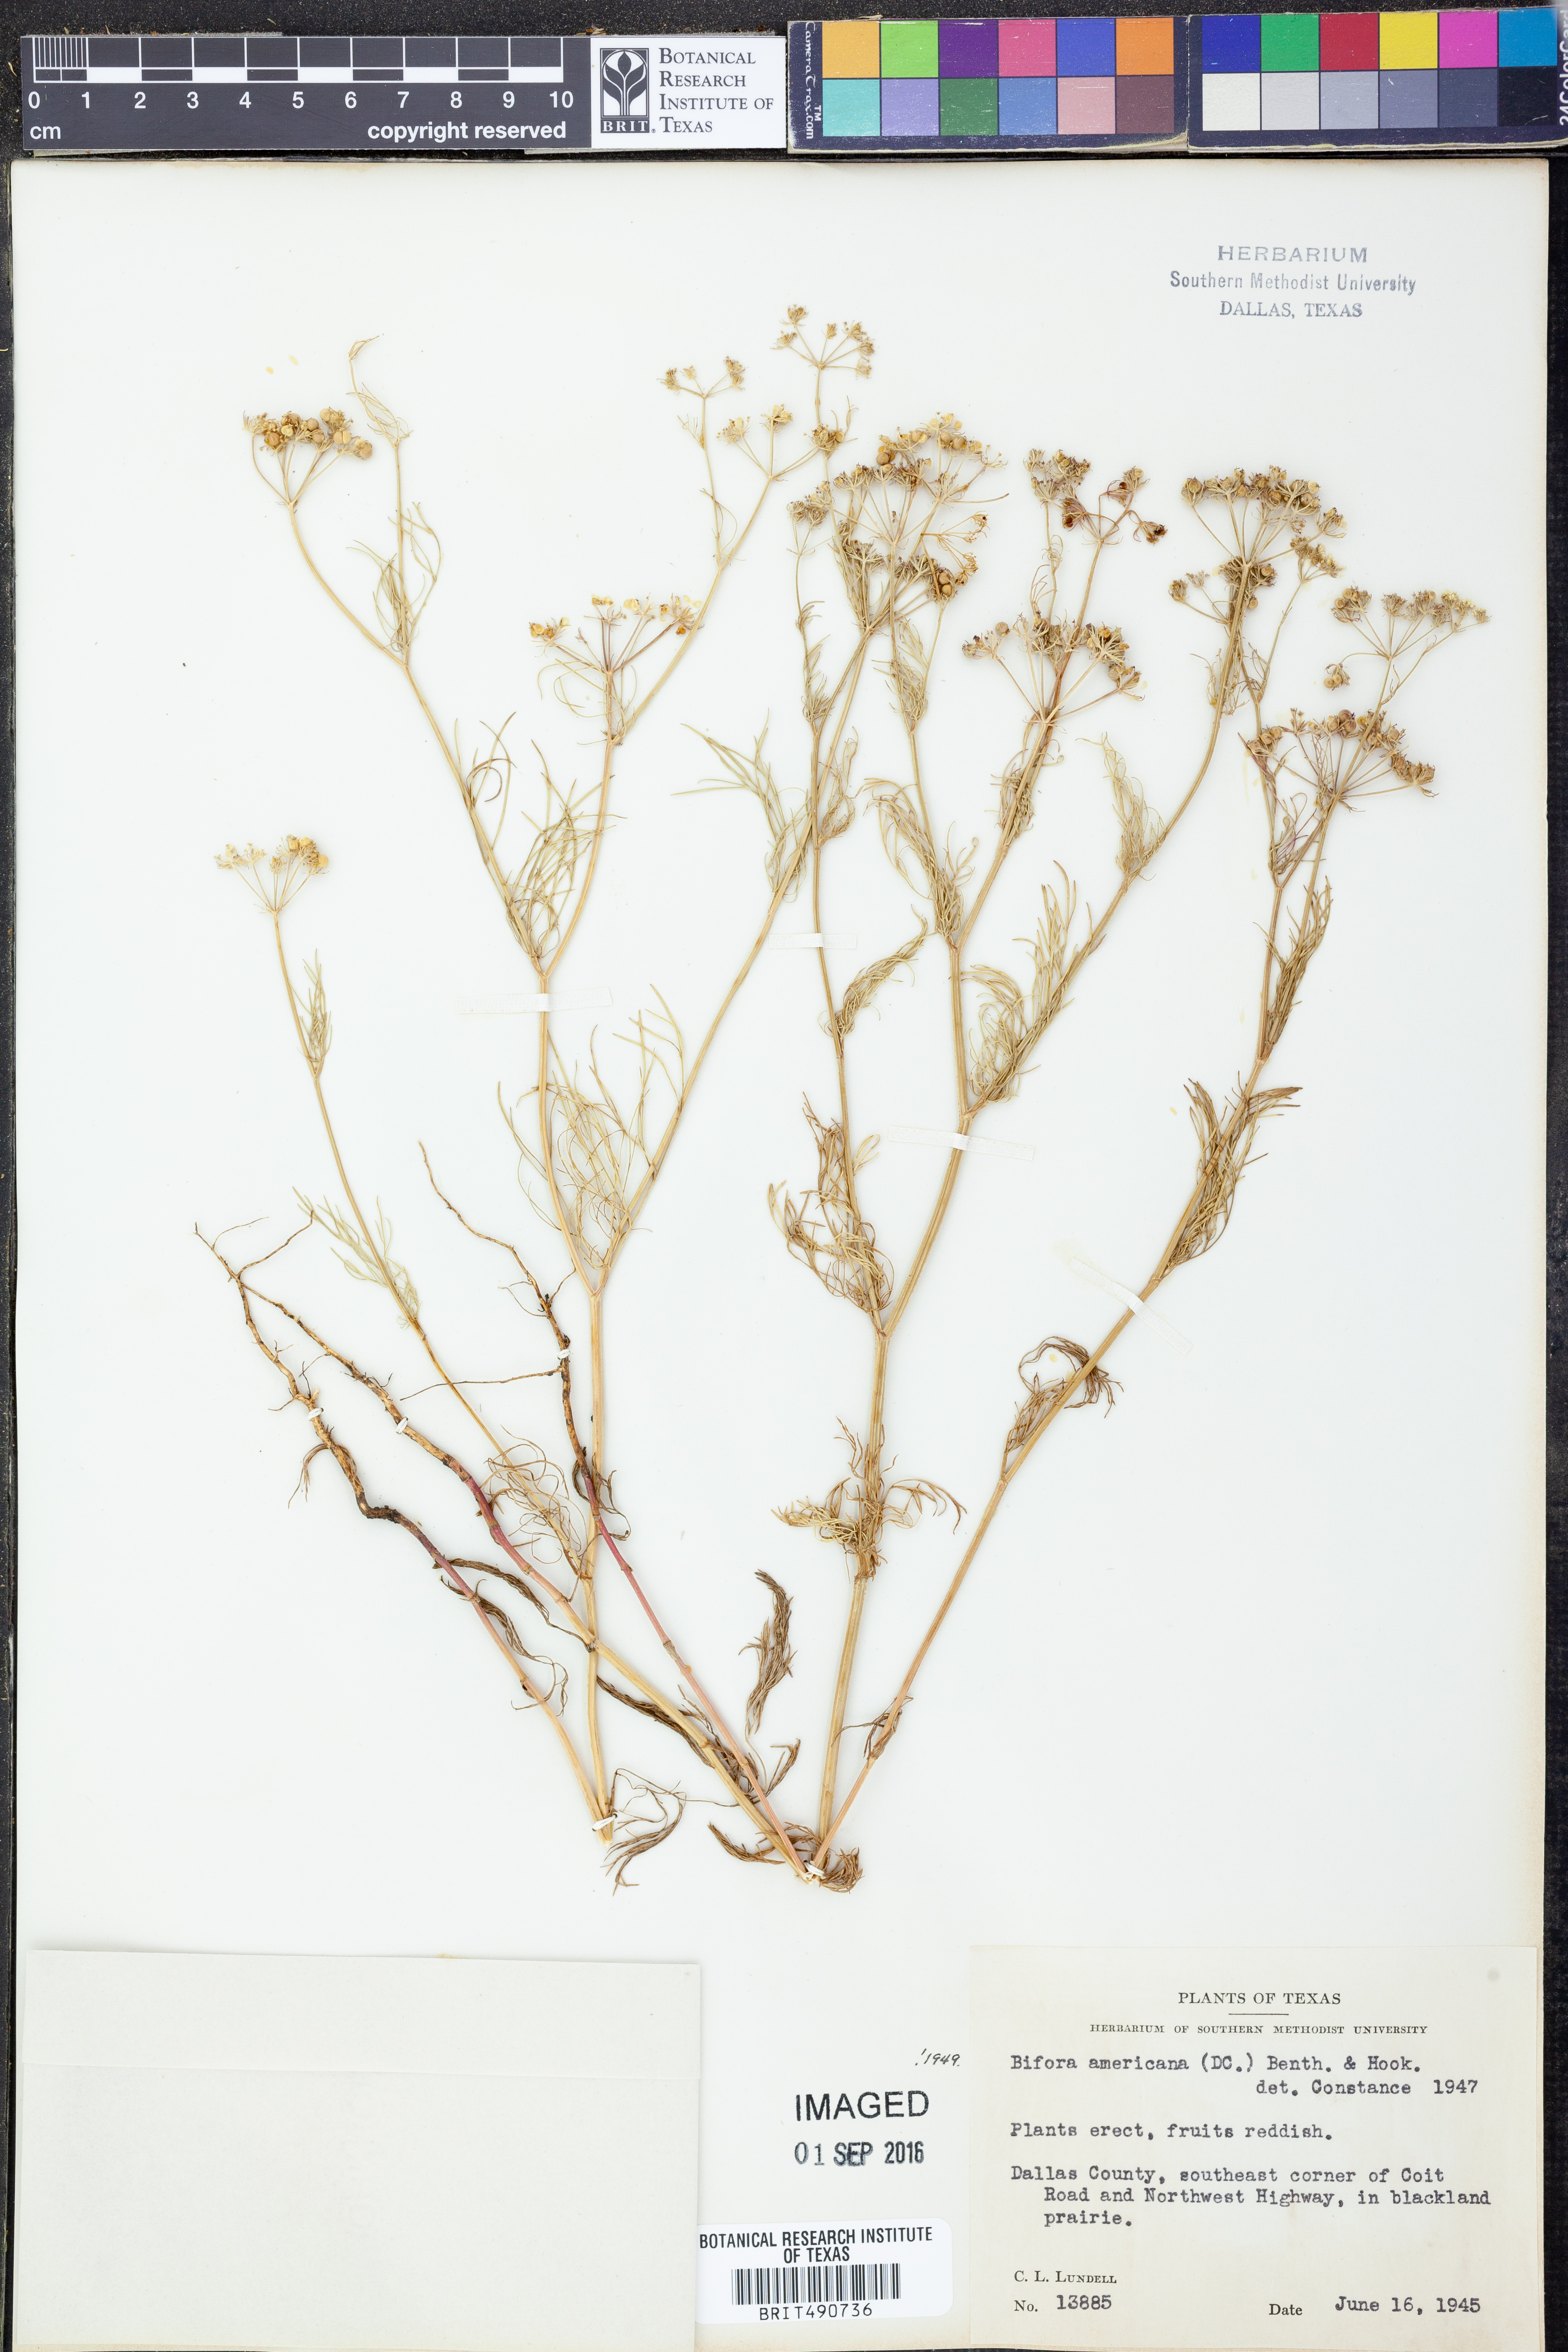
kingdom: Plantae
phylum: Tracheophyta
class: Magnoliopsida
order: Apiales
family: Apiaceae
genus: Atrema
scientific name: Atrema americanum
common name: Prairie-bishop
